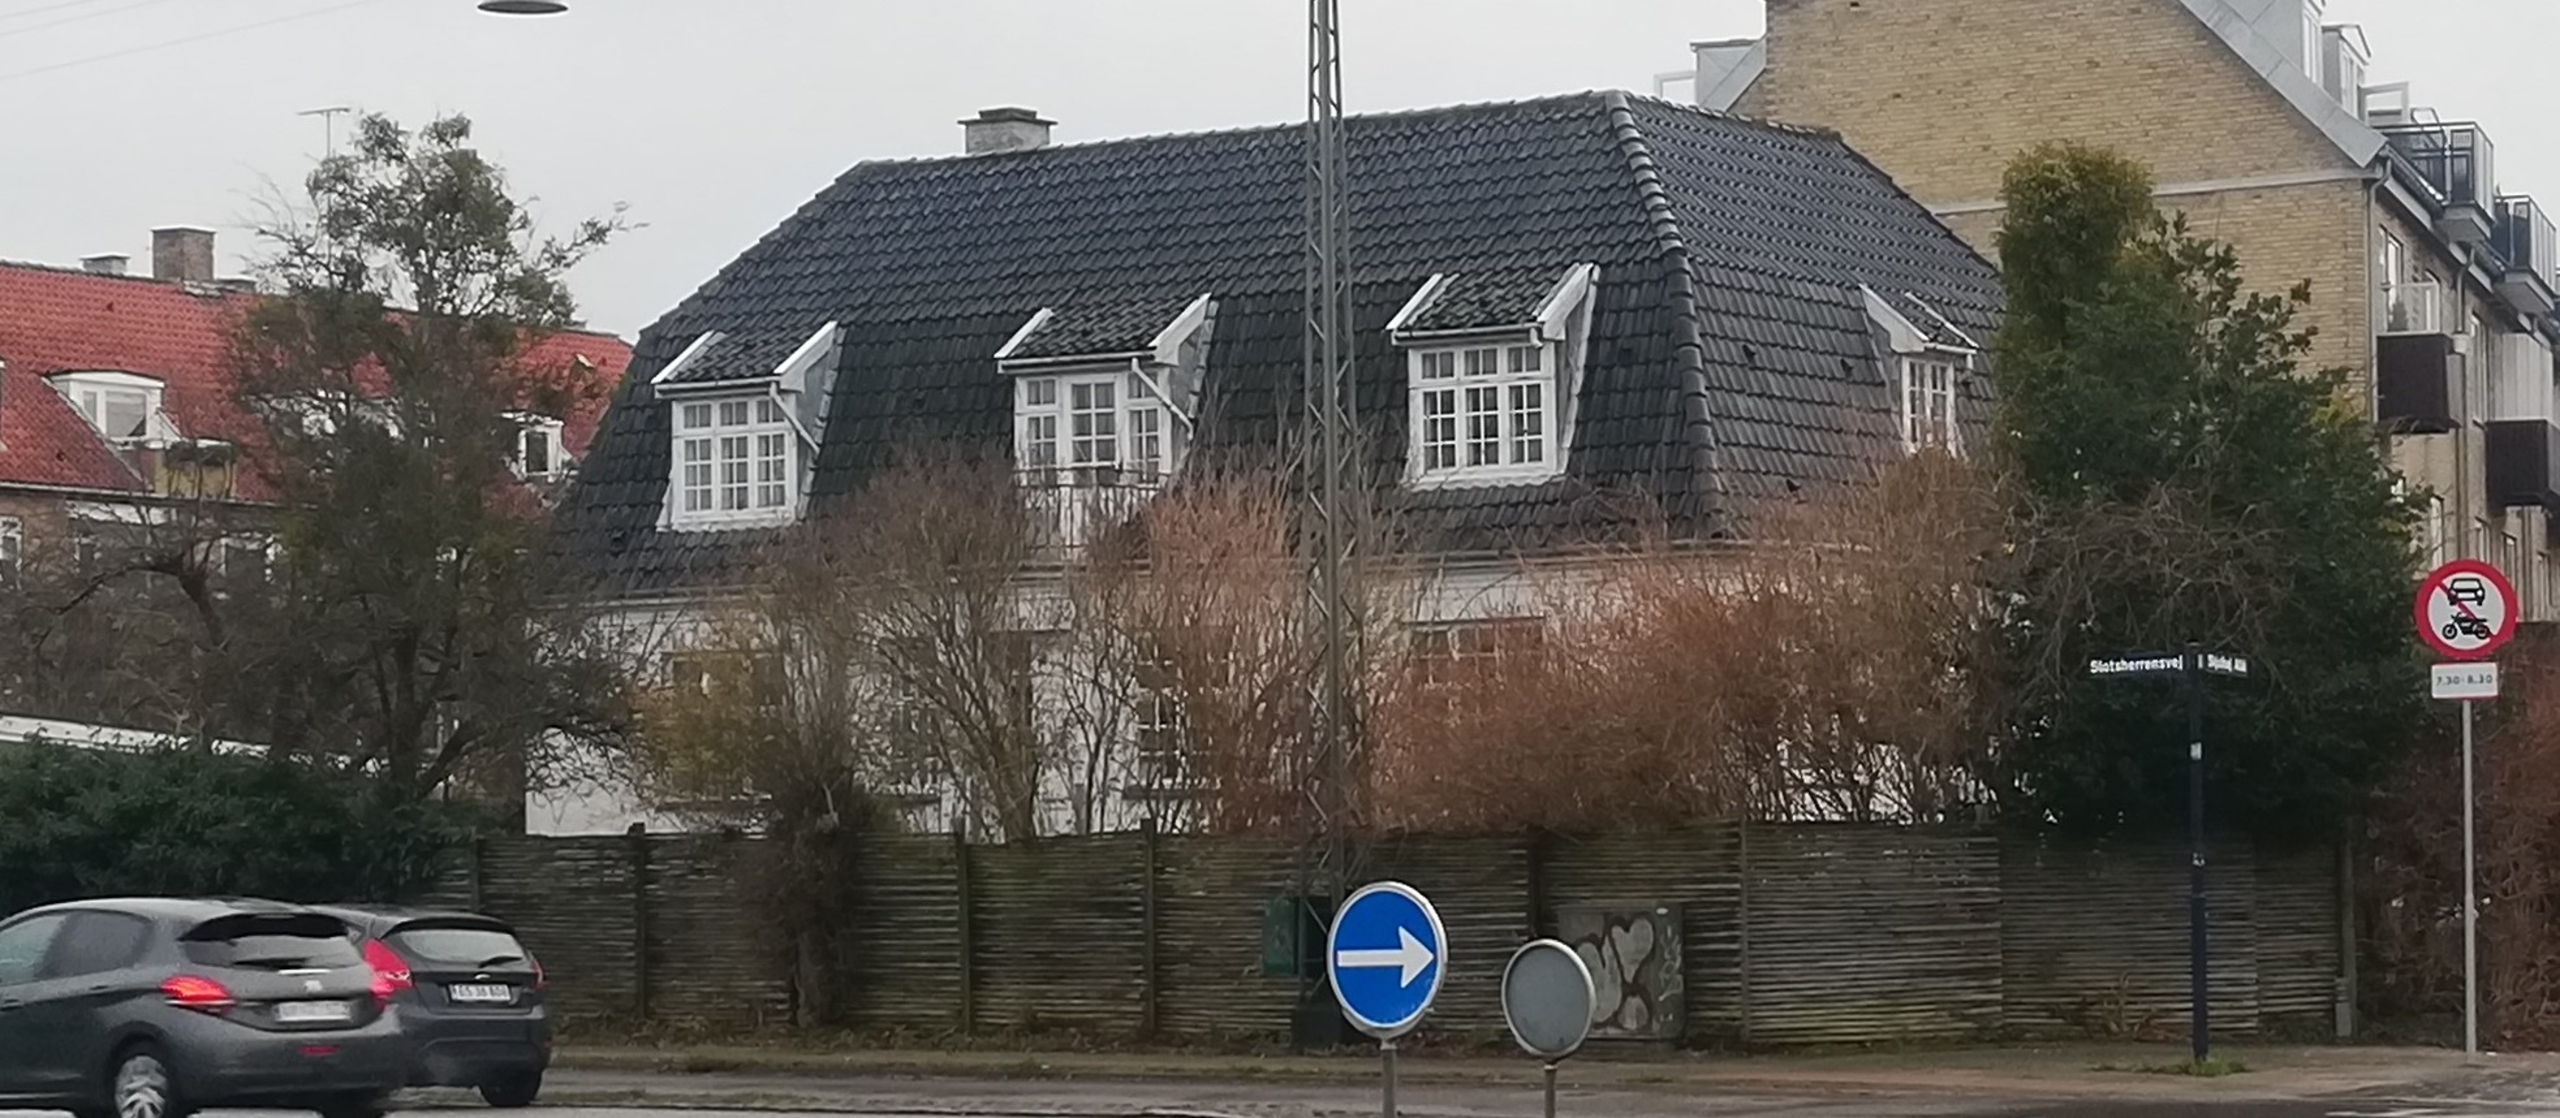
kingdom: Plantae
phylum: Tracheophyta
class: Magnoliopsida
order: Santalales
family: Viscaceae
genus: Viscum
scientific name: Viscum album
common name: Mistelten
